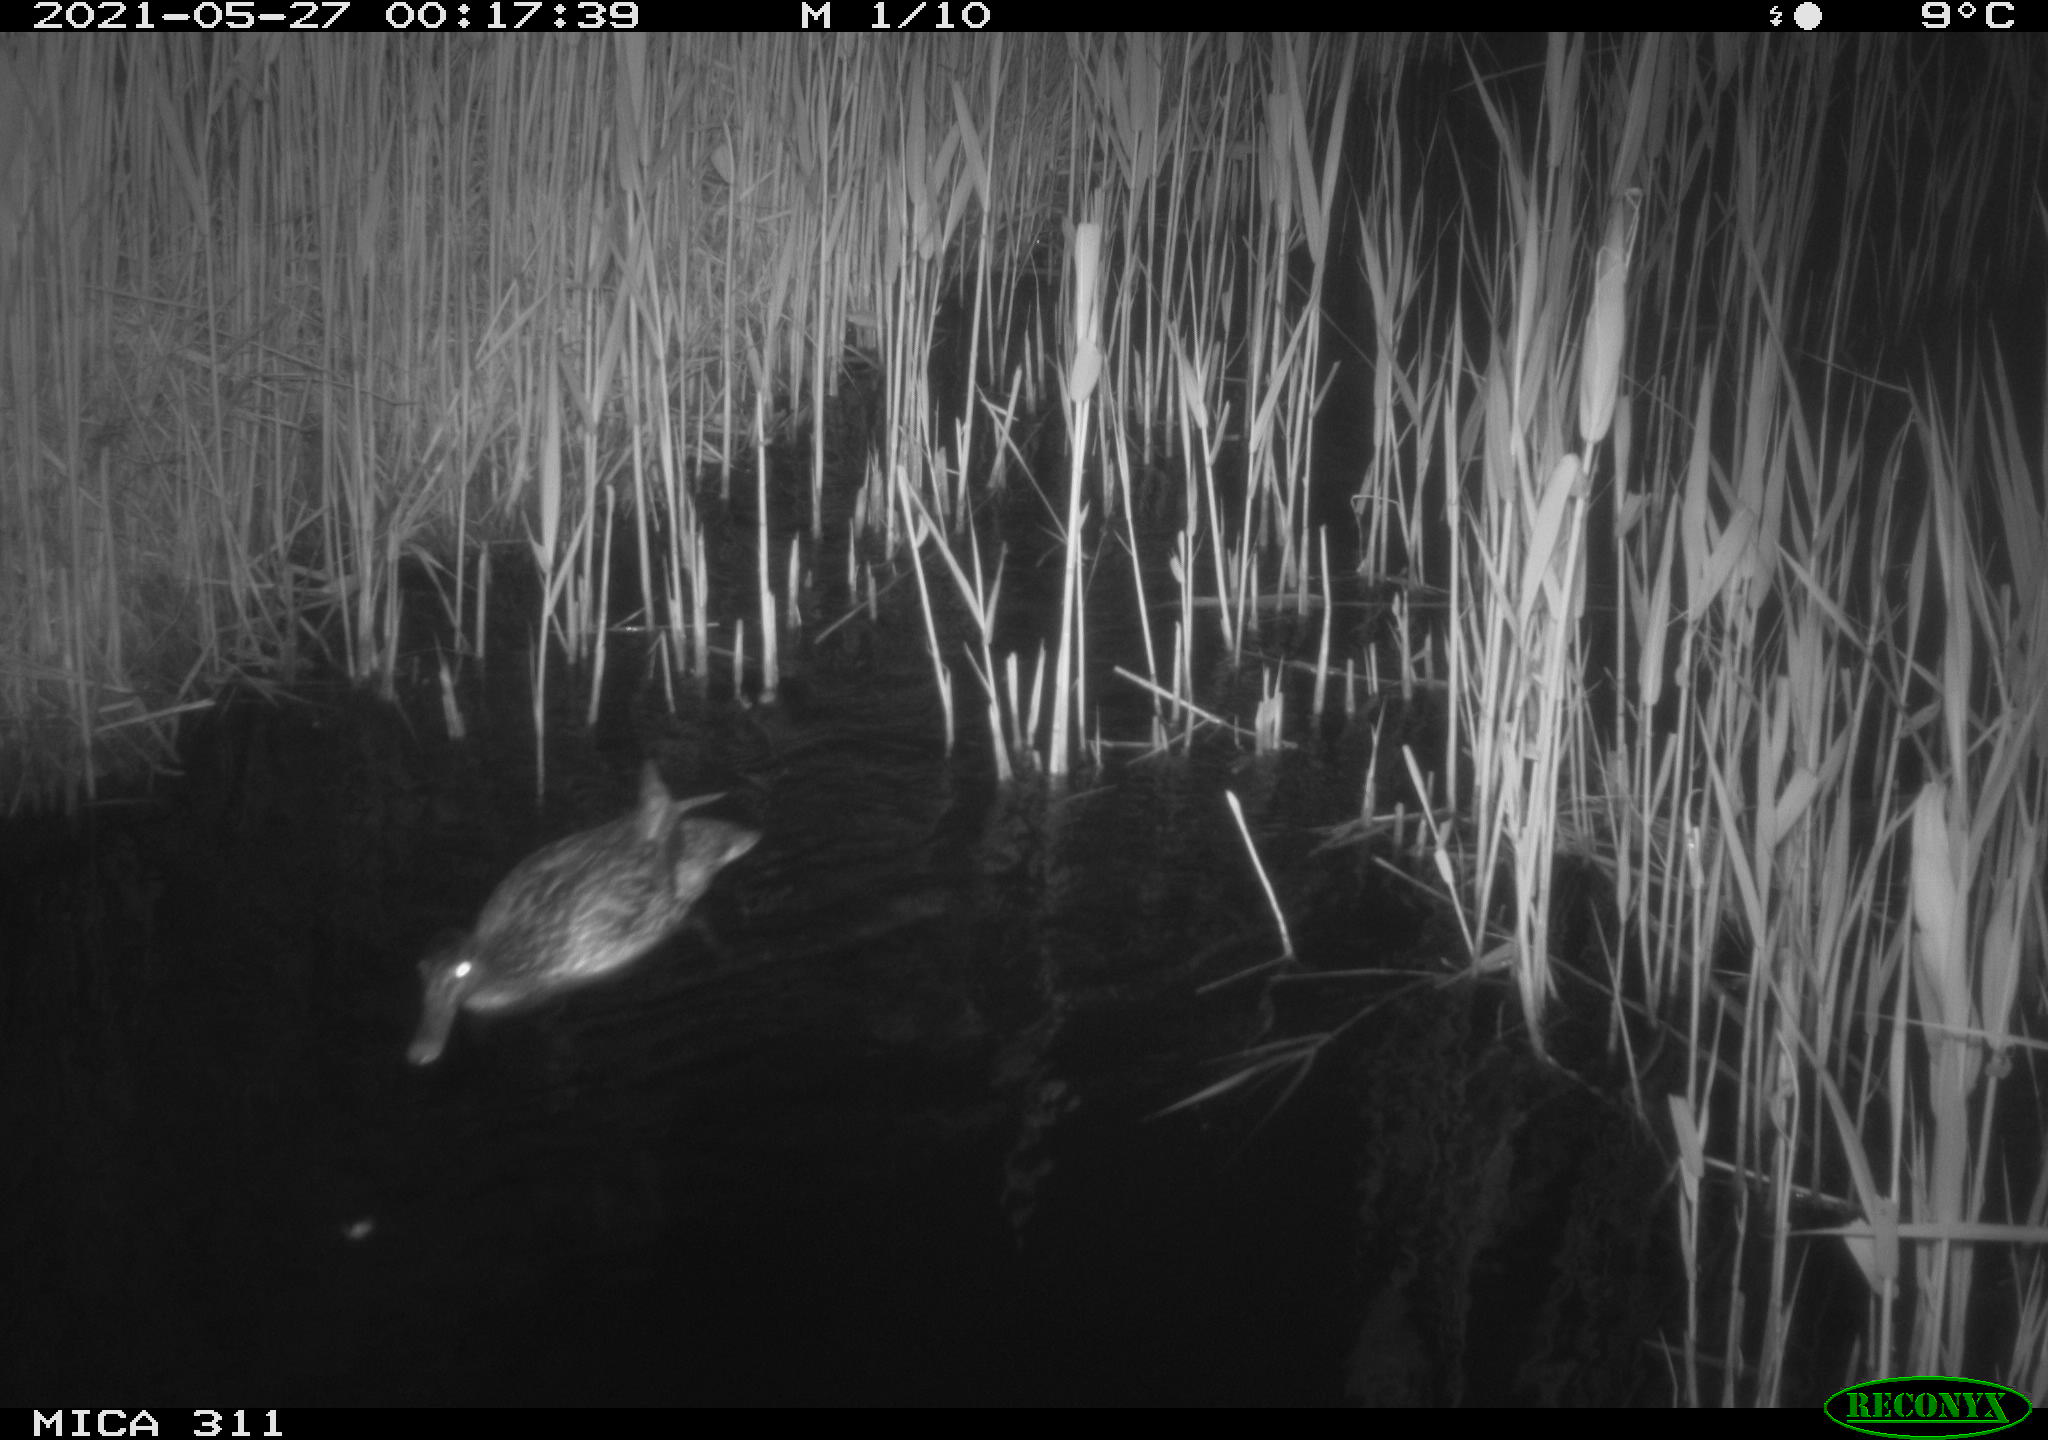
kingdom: Animalia
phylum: Chordata
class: Aves
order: Anseriformes
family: Anatidae
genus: Anas
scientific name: Anas platyrhynchos
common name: Mallard
